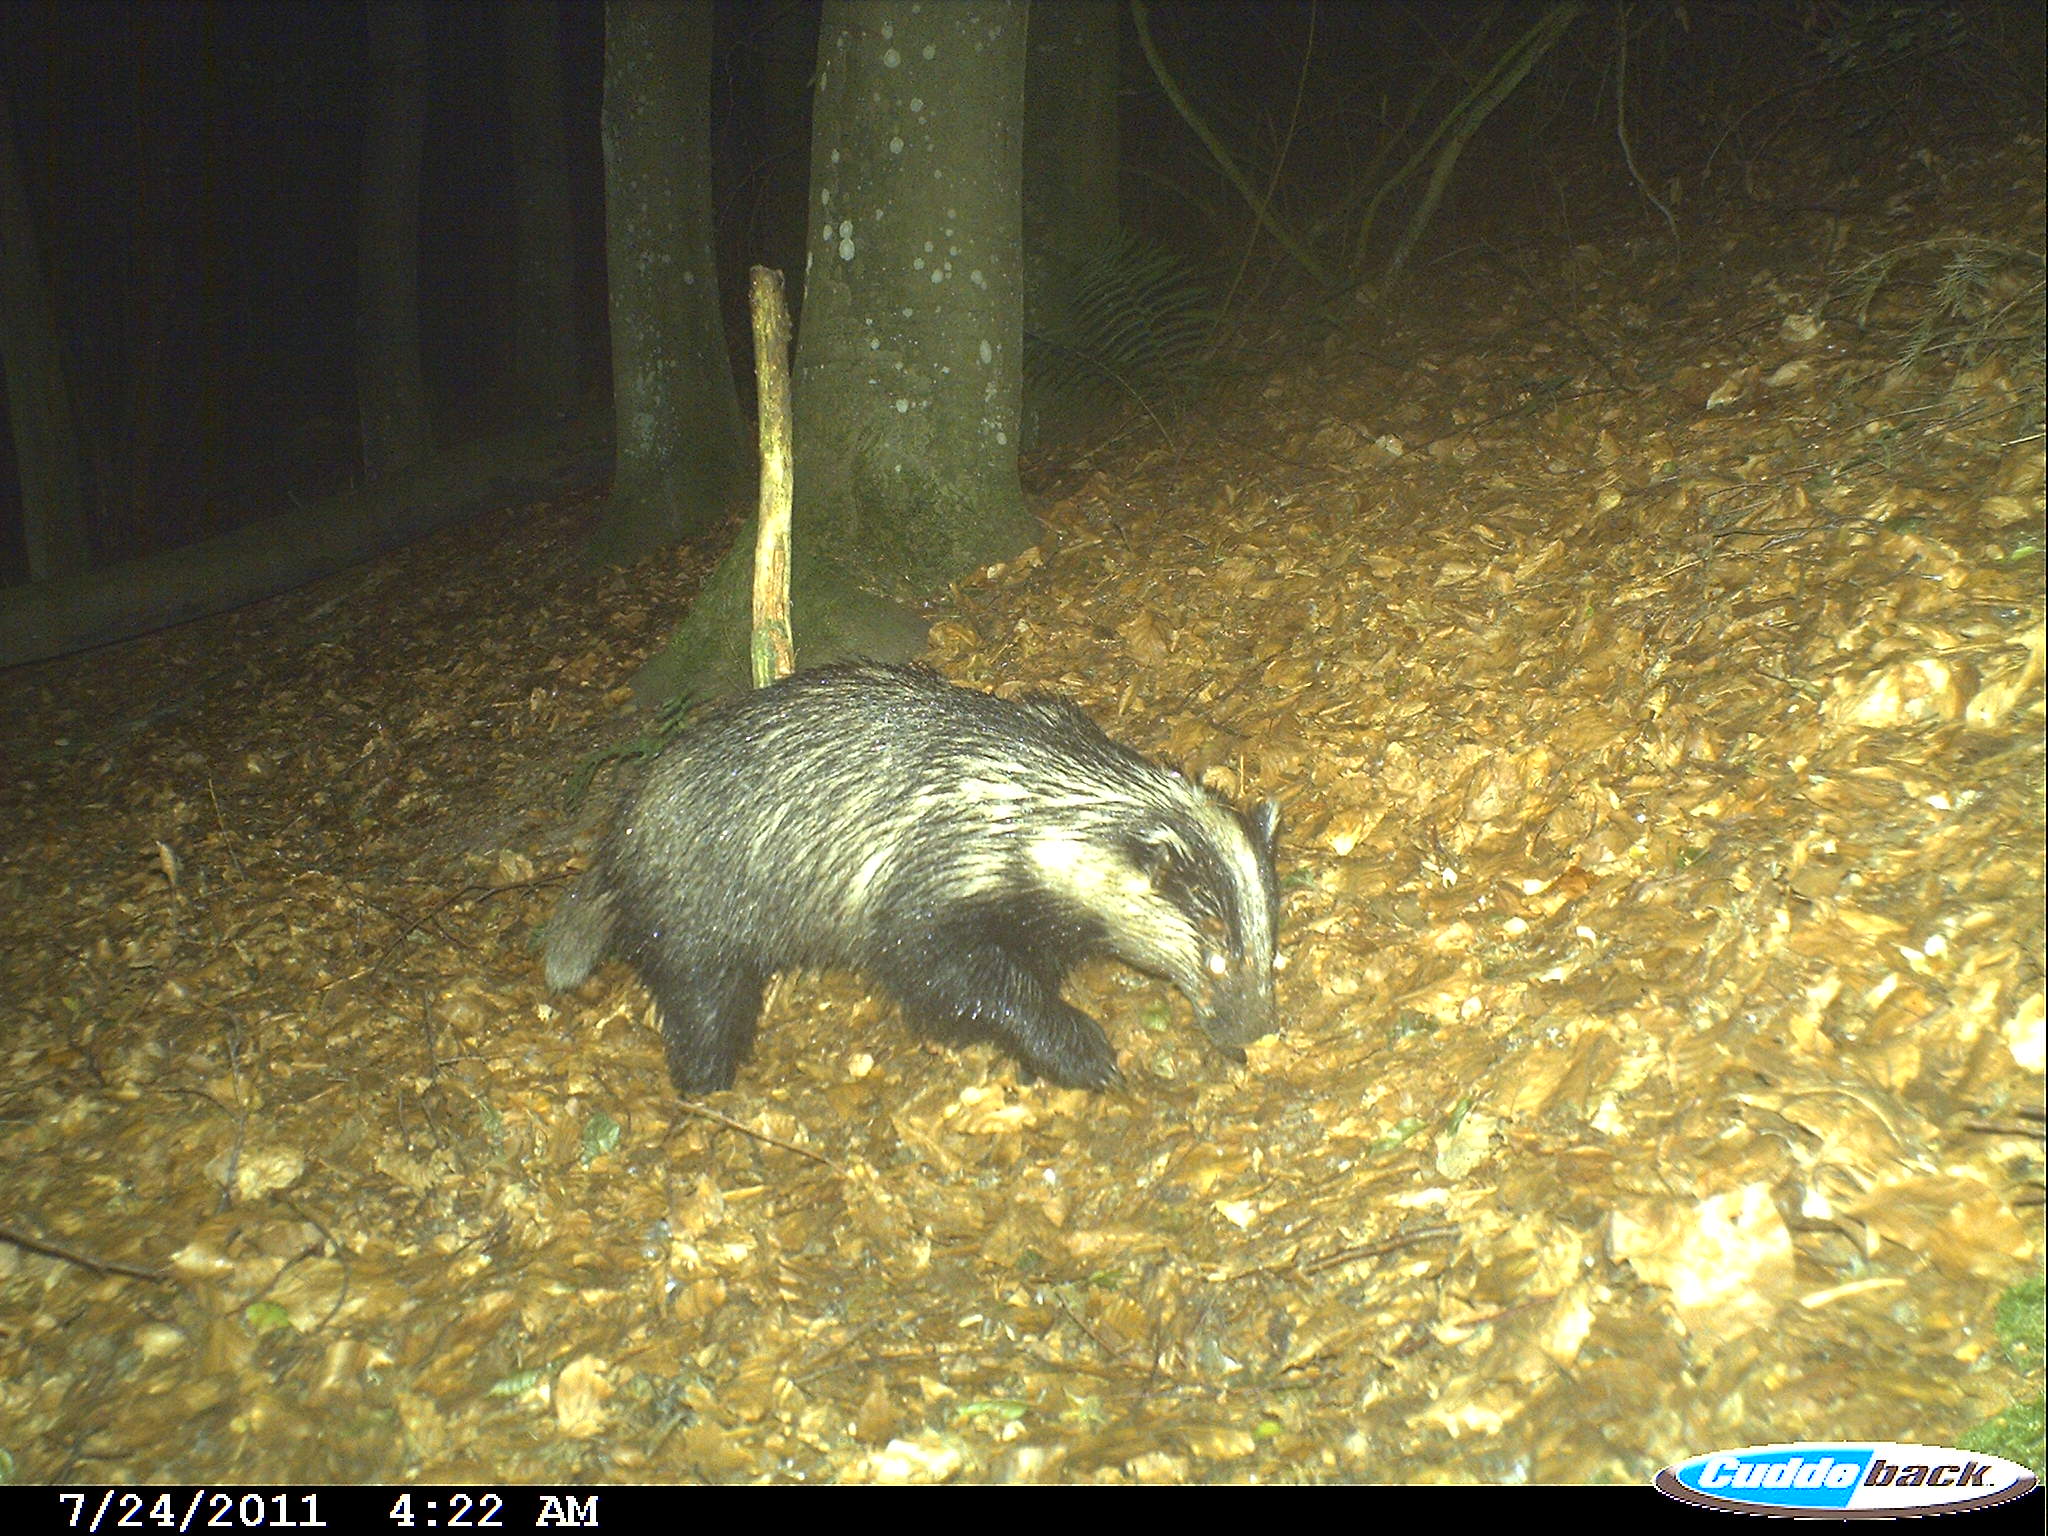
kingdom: Animalia
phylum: Chordata
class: Mammalia
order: Carnivora
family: Mustelidae
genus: Meles
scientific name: Meles meles
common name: Eurasian badger
